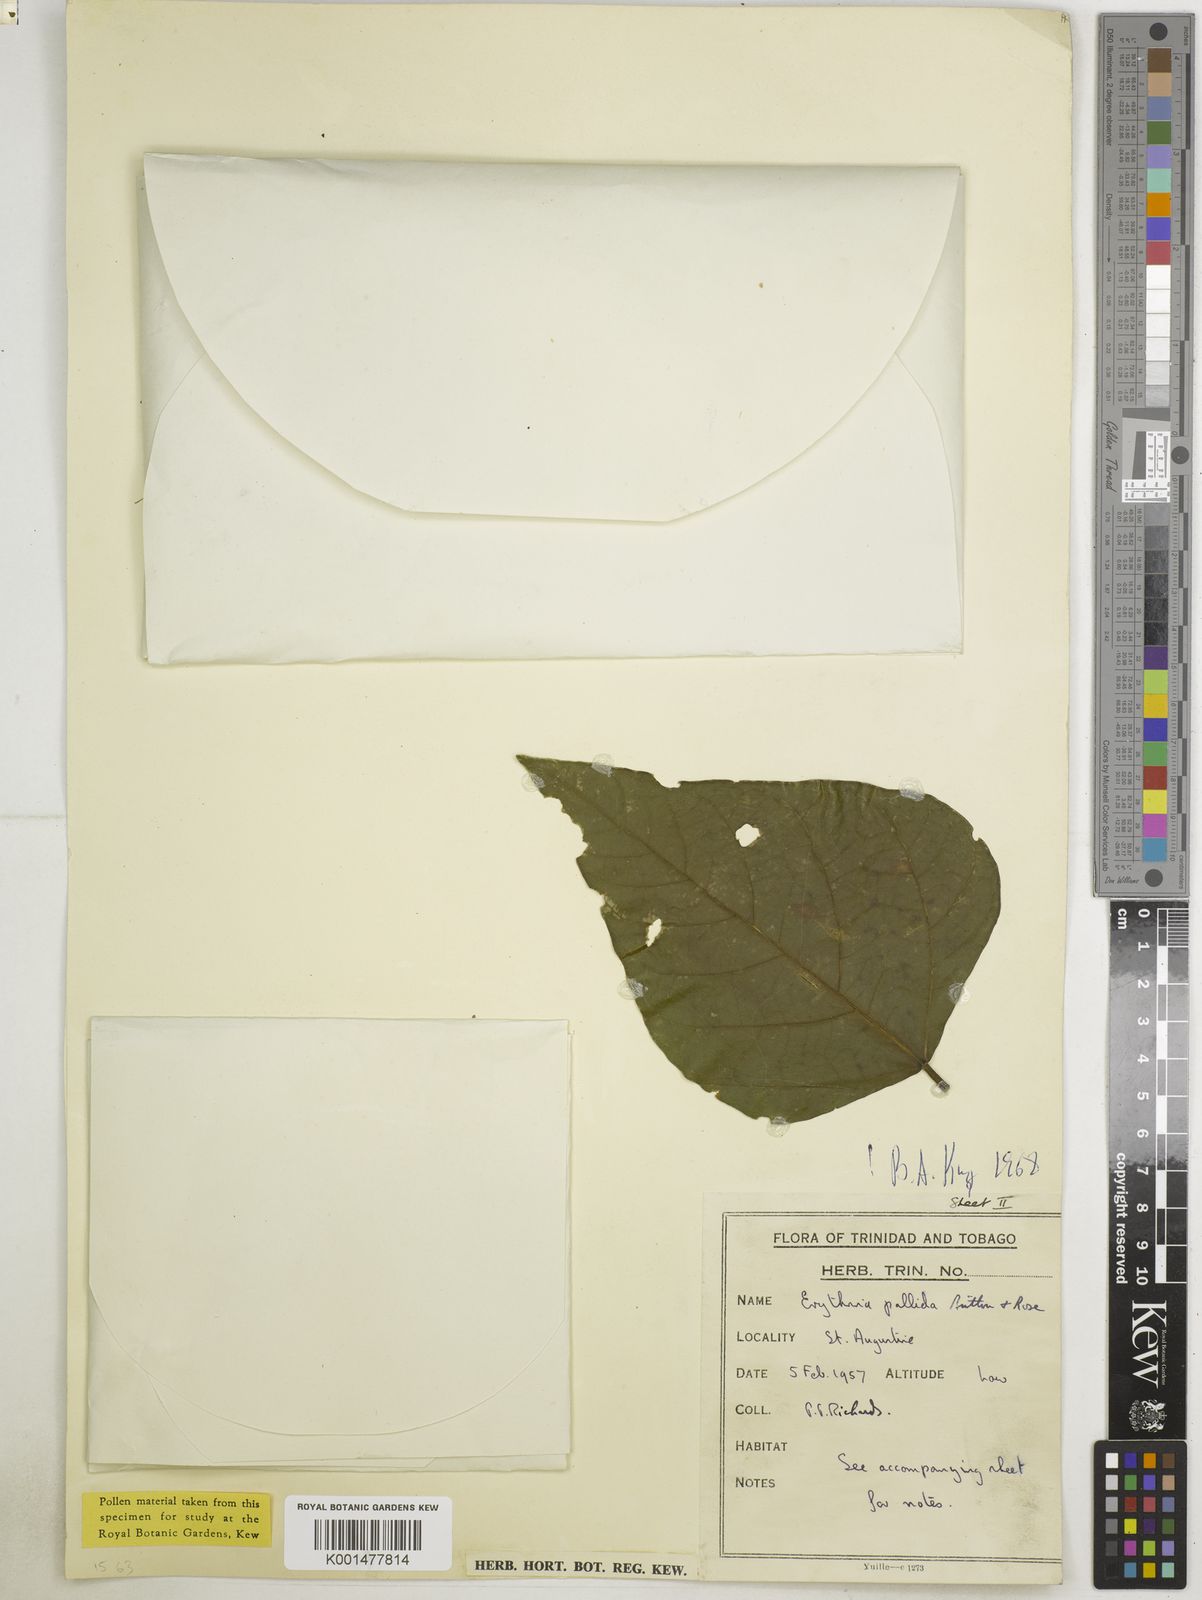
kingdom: Plantae
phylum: Tracheophyta
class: Magnoliopsida
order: Fabales
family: Fabaceae
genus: Erythrina
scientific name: Erythrina pallida
